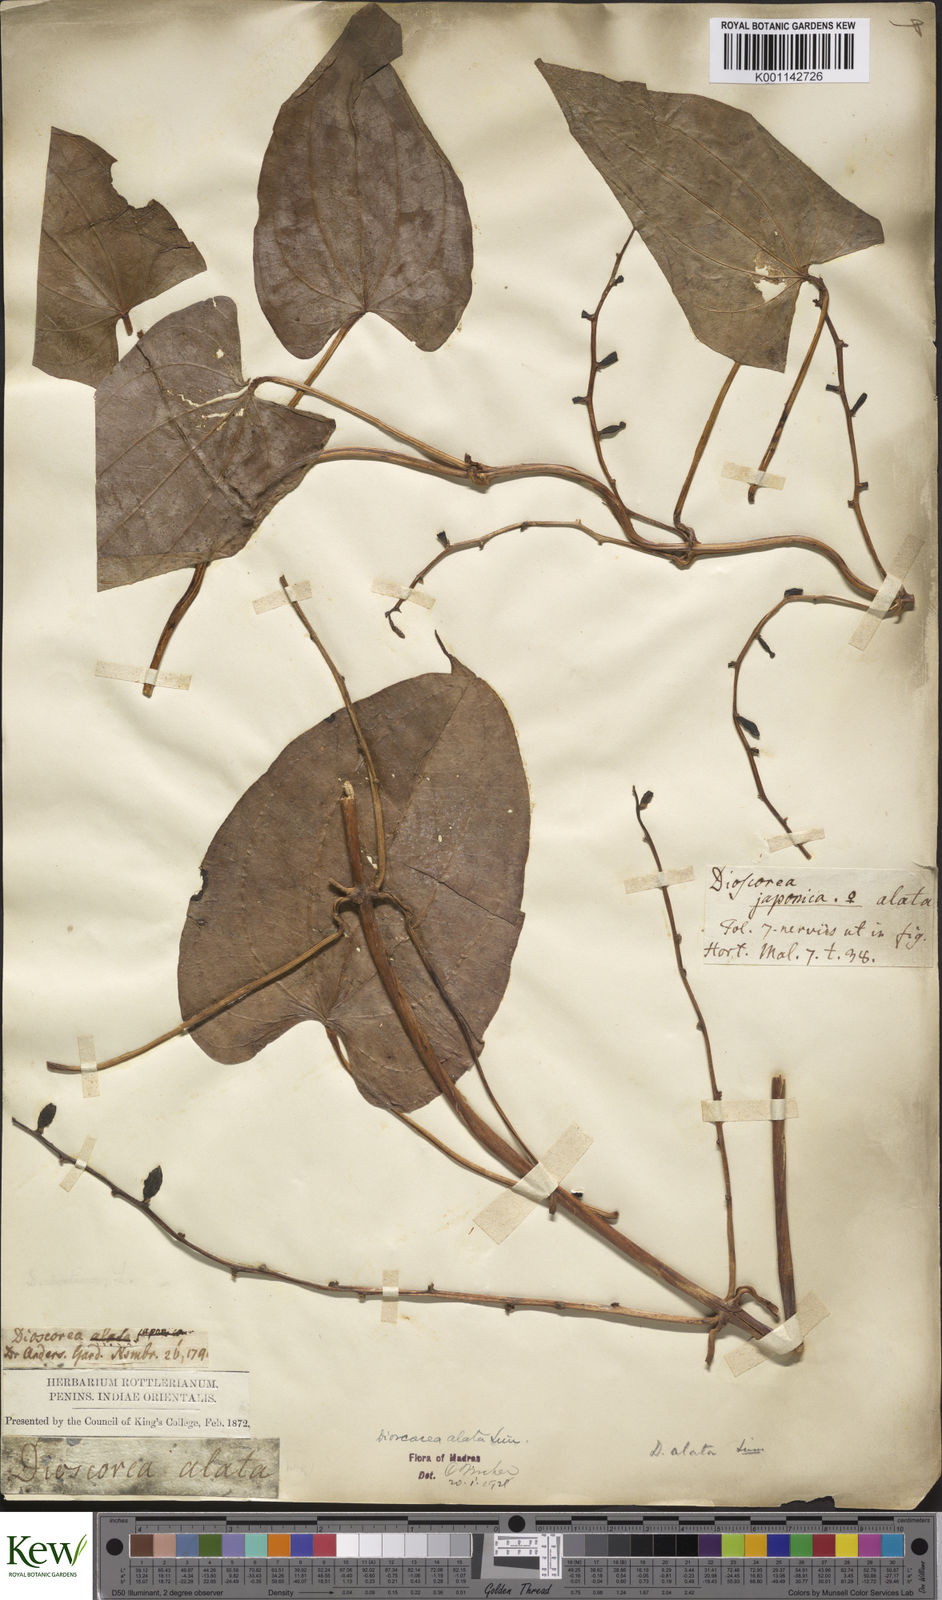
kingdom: Plantae
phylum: Tracheophyta
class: Liliopsida
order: Dioscoreales
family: Dioscoreaceae
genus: Dioscorea
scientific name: Dioscorea alata
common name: Water yam
